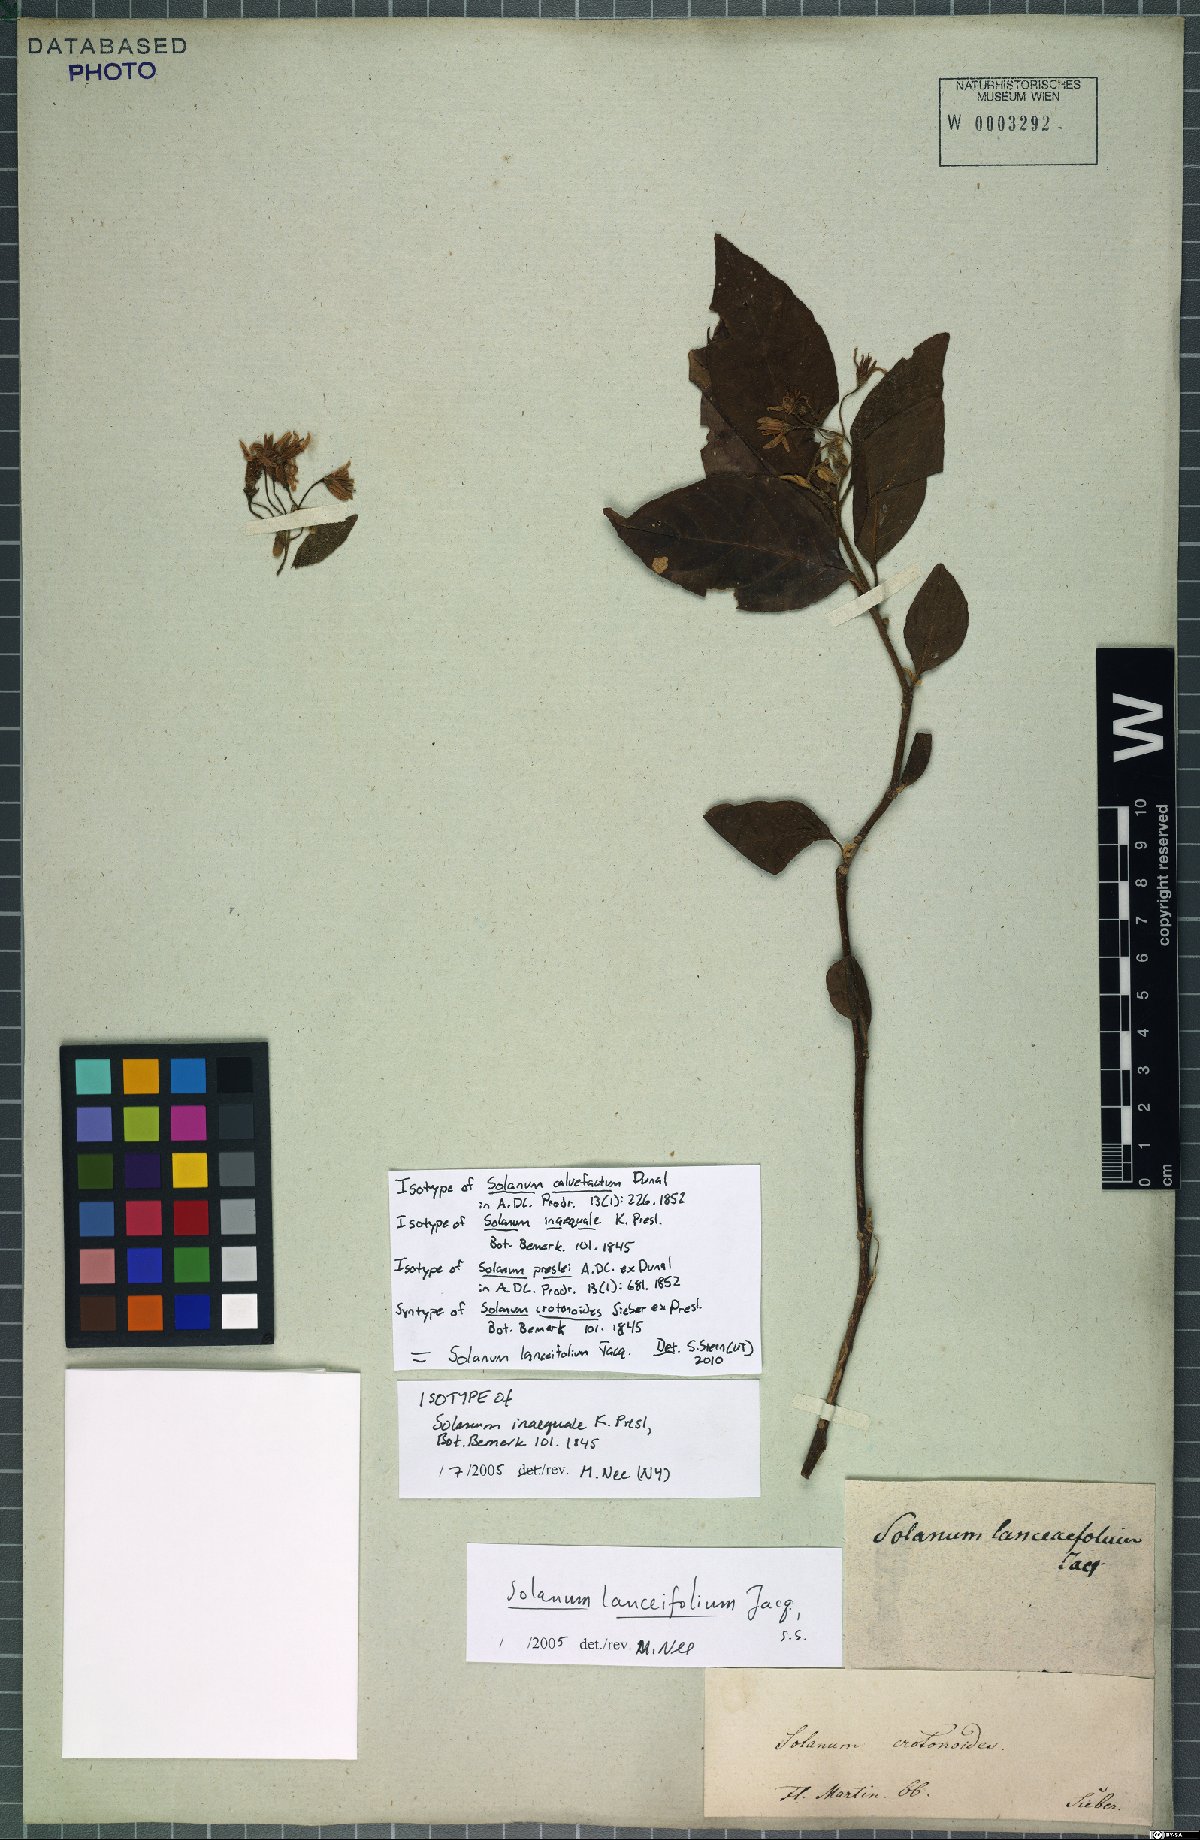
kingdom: Plantae
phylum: Tracheophyta
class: Magnoliopsida
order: Solanales
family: Solanaceae
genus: Solanum
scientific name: Solanum lanceifolium
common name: Lanceleaf nightshade
